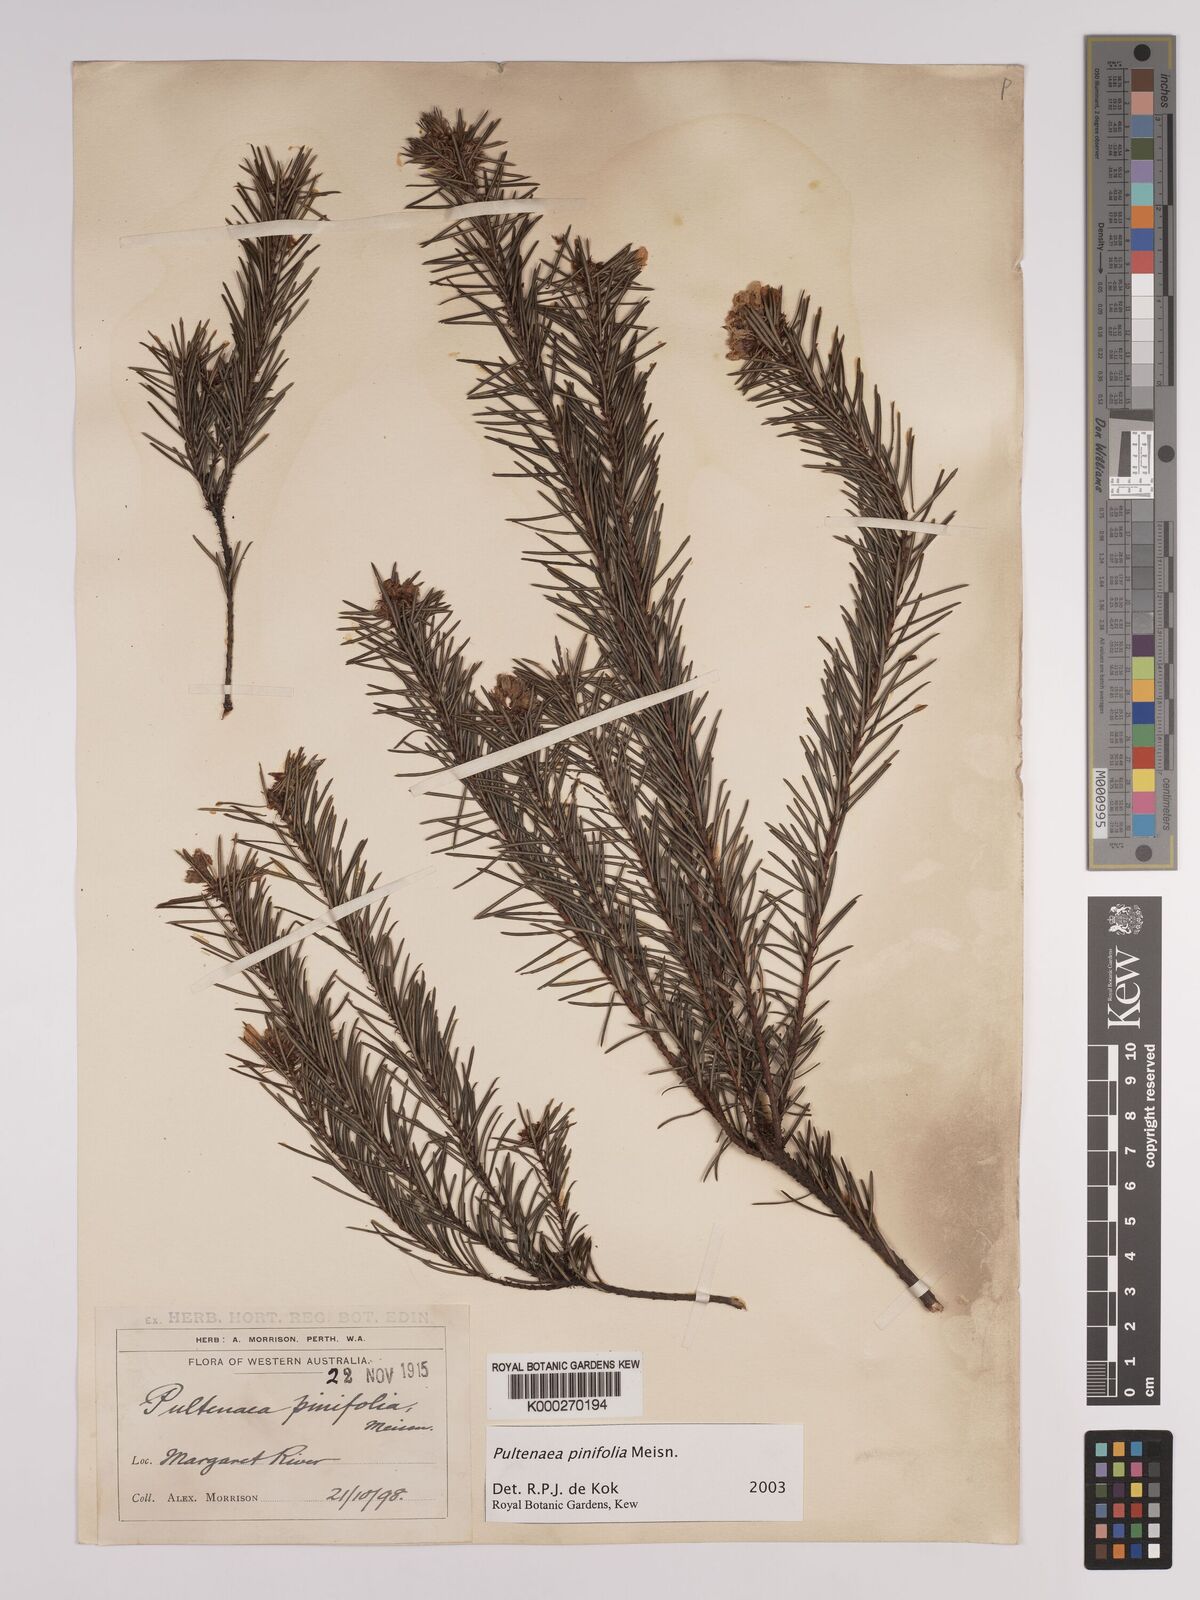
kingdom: Plantae
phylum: Tracheophyta
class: Magnoliopsida
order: Fabales
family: Fabaceae
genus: Pultenaea
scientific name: Pultenaea pinifolia
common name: Tree pultenaea
